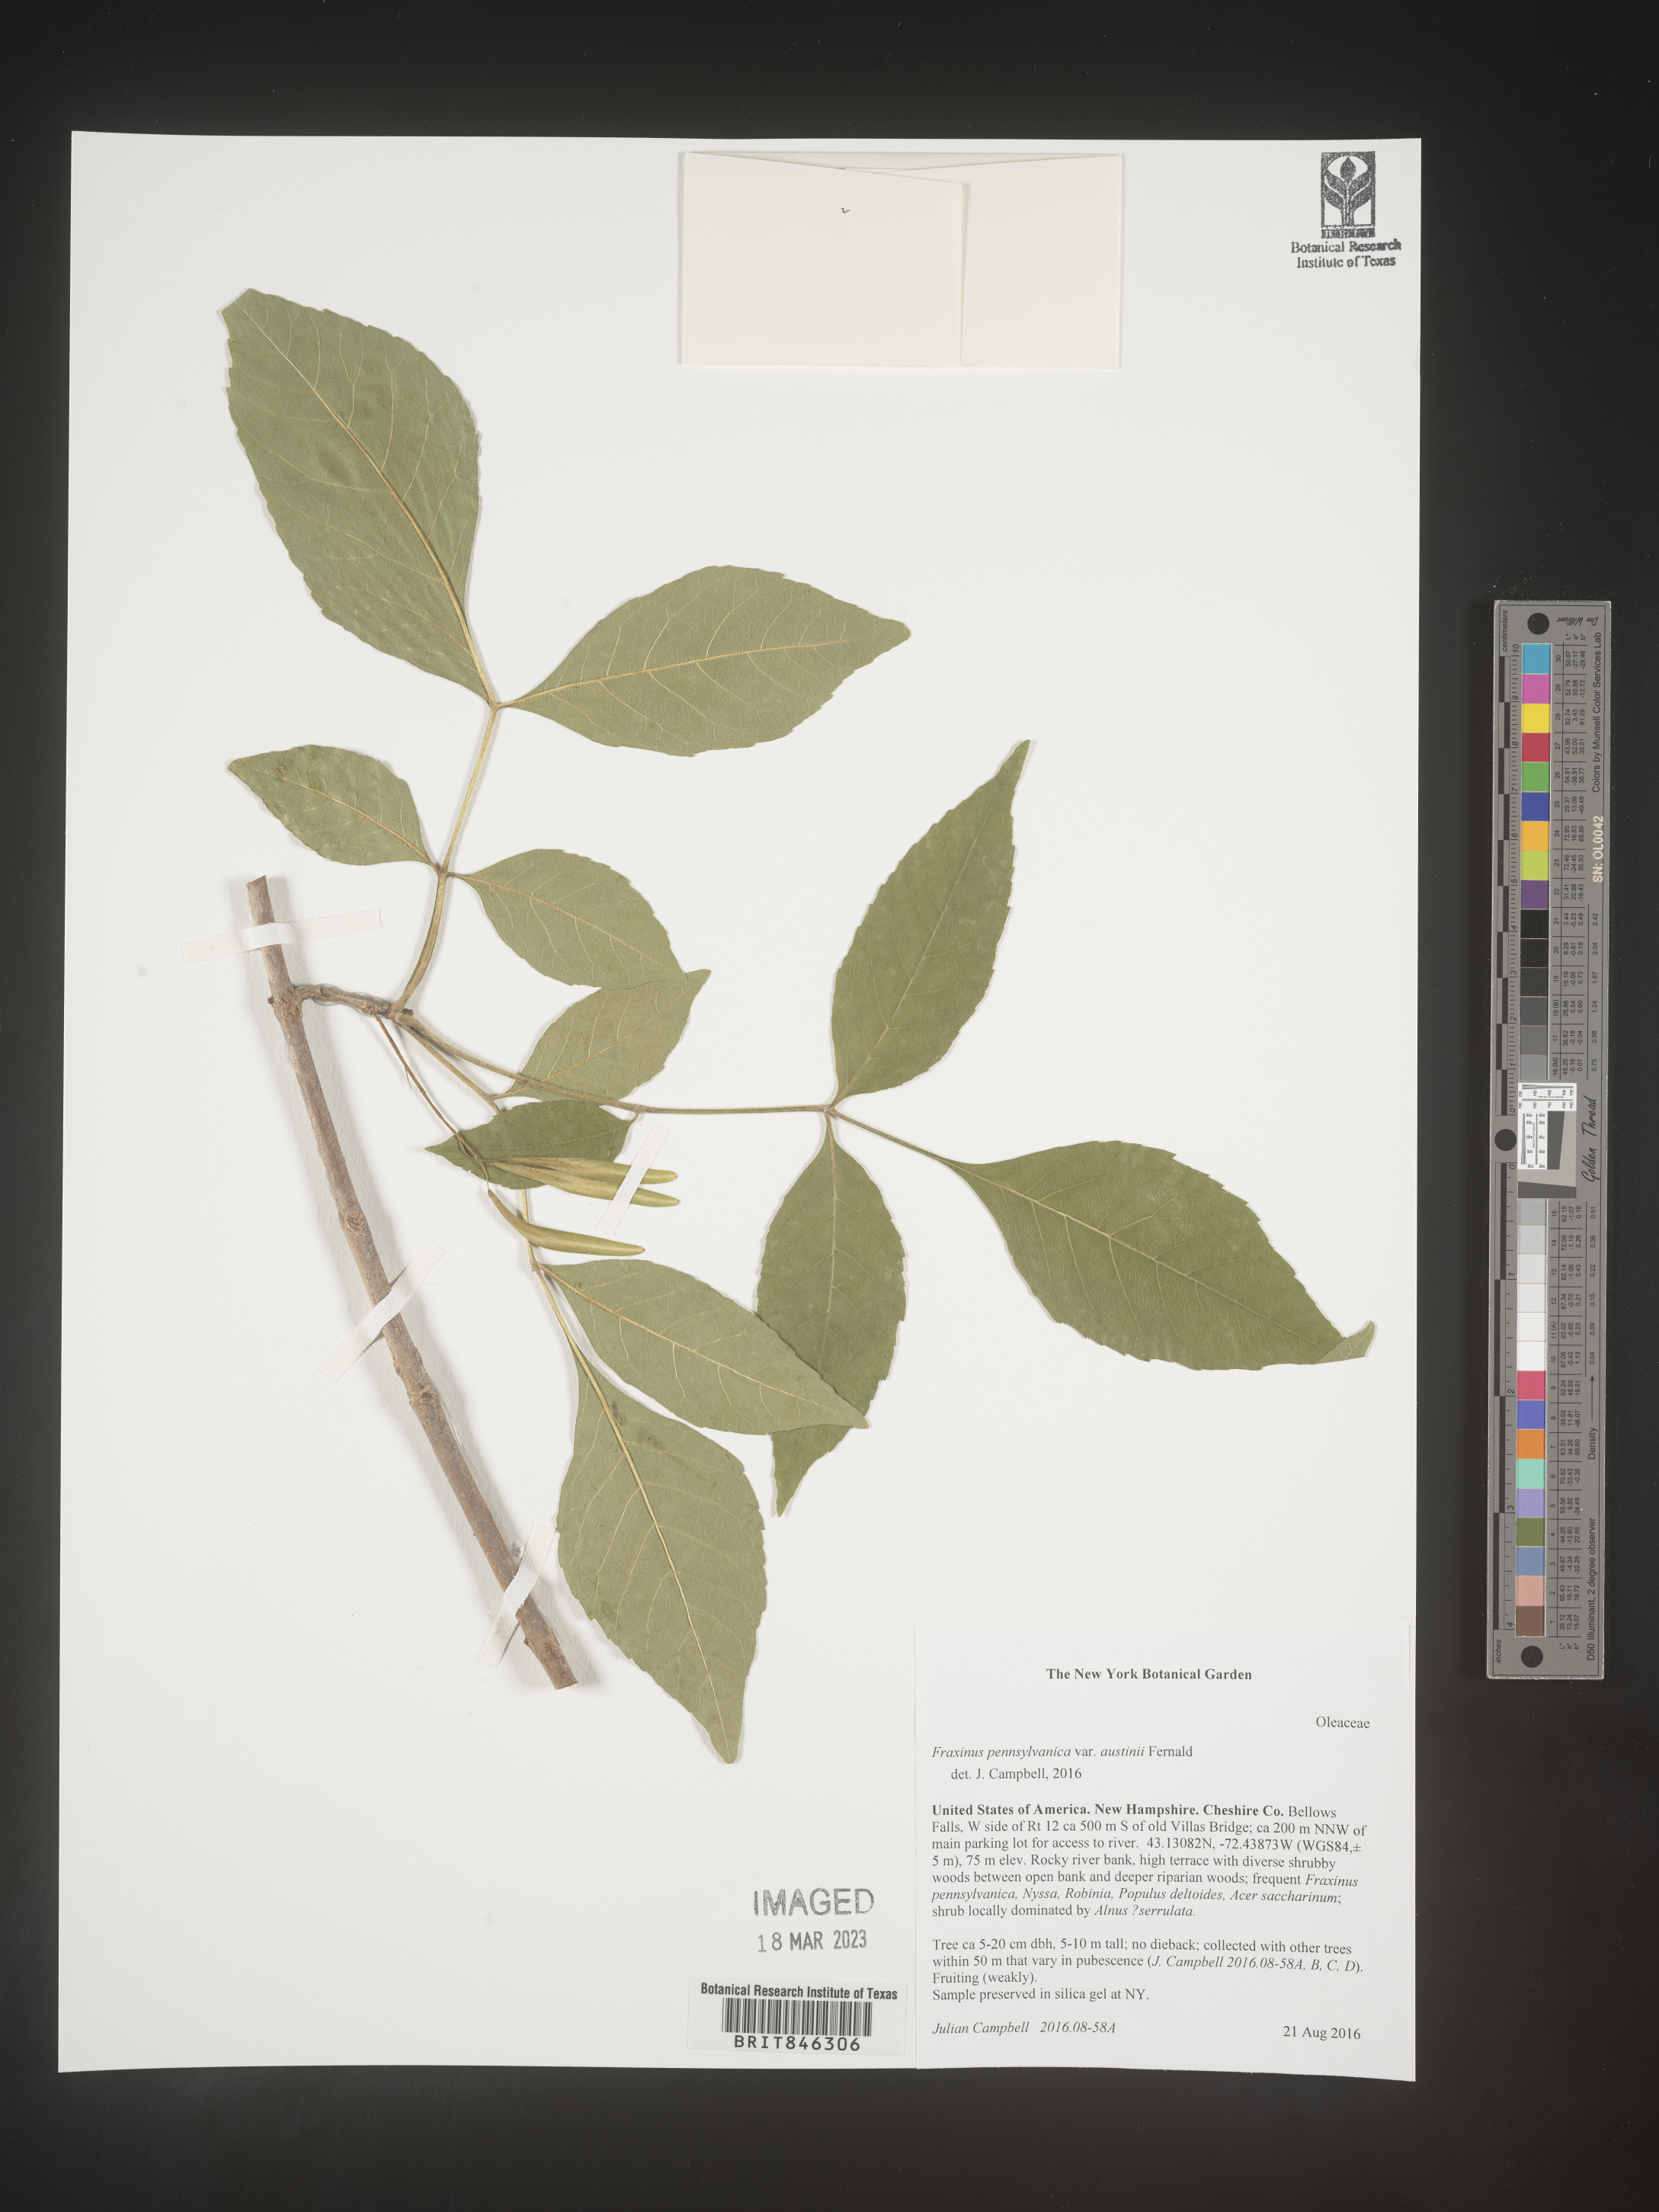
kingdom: Plantae
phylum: Tracheophyta
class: Magnoliopsida
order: Lamiales
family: Oleaceae
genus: Fraxinus
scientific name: Fraxinus pennsylvanica
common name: Green ash
